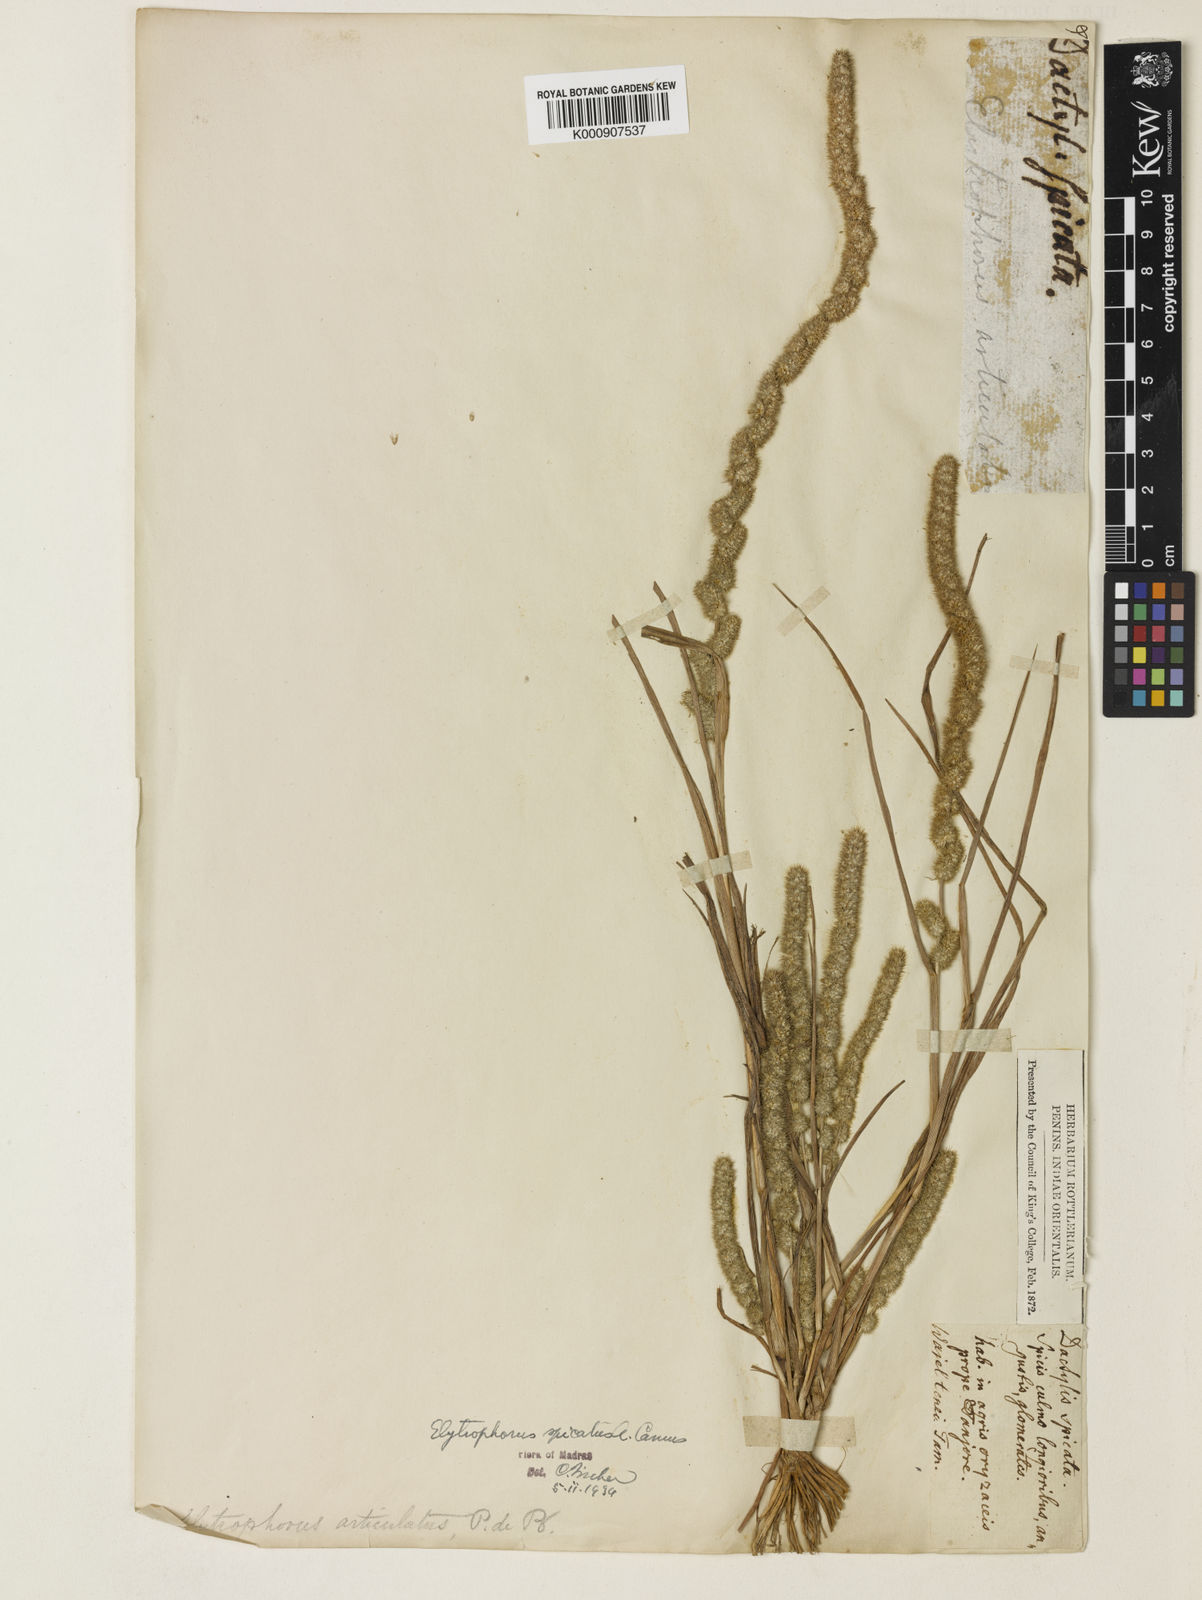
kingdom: Plantae
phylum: Tracheophyta
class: Liliopsida
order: Poales
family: Poaceae
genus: Elytrophorus
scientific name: Elytrophorus spicatus
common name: Spike grass
